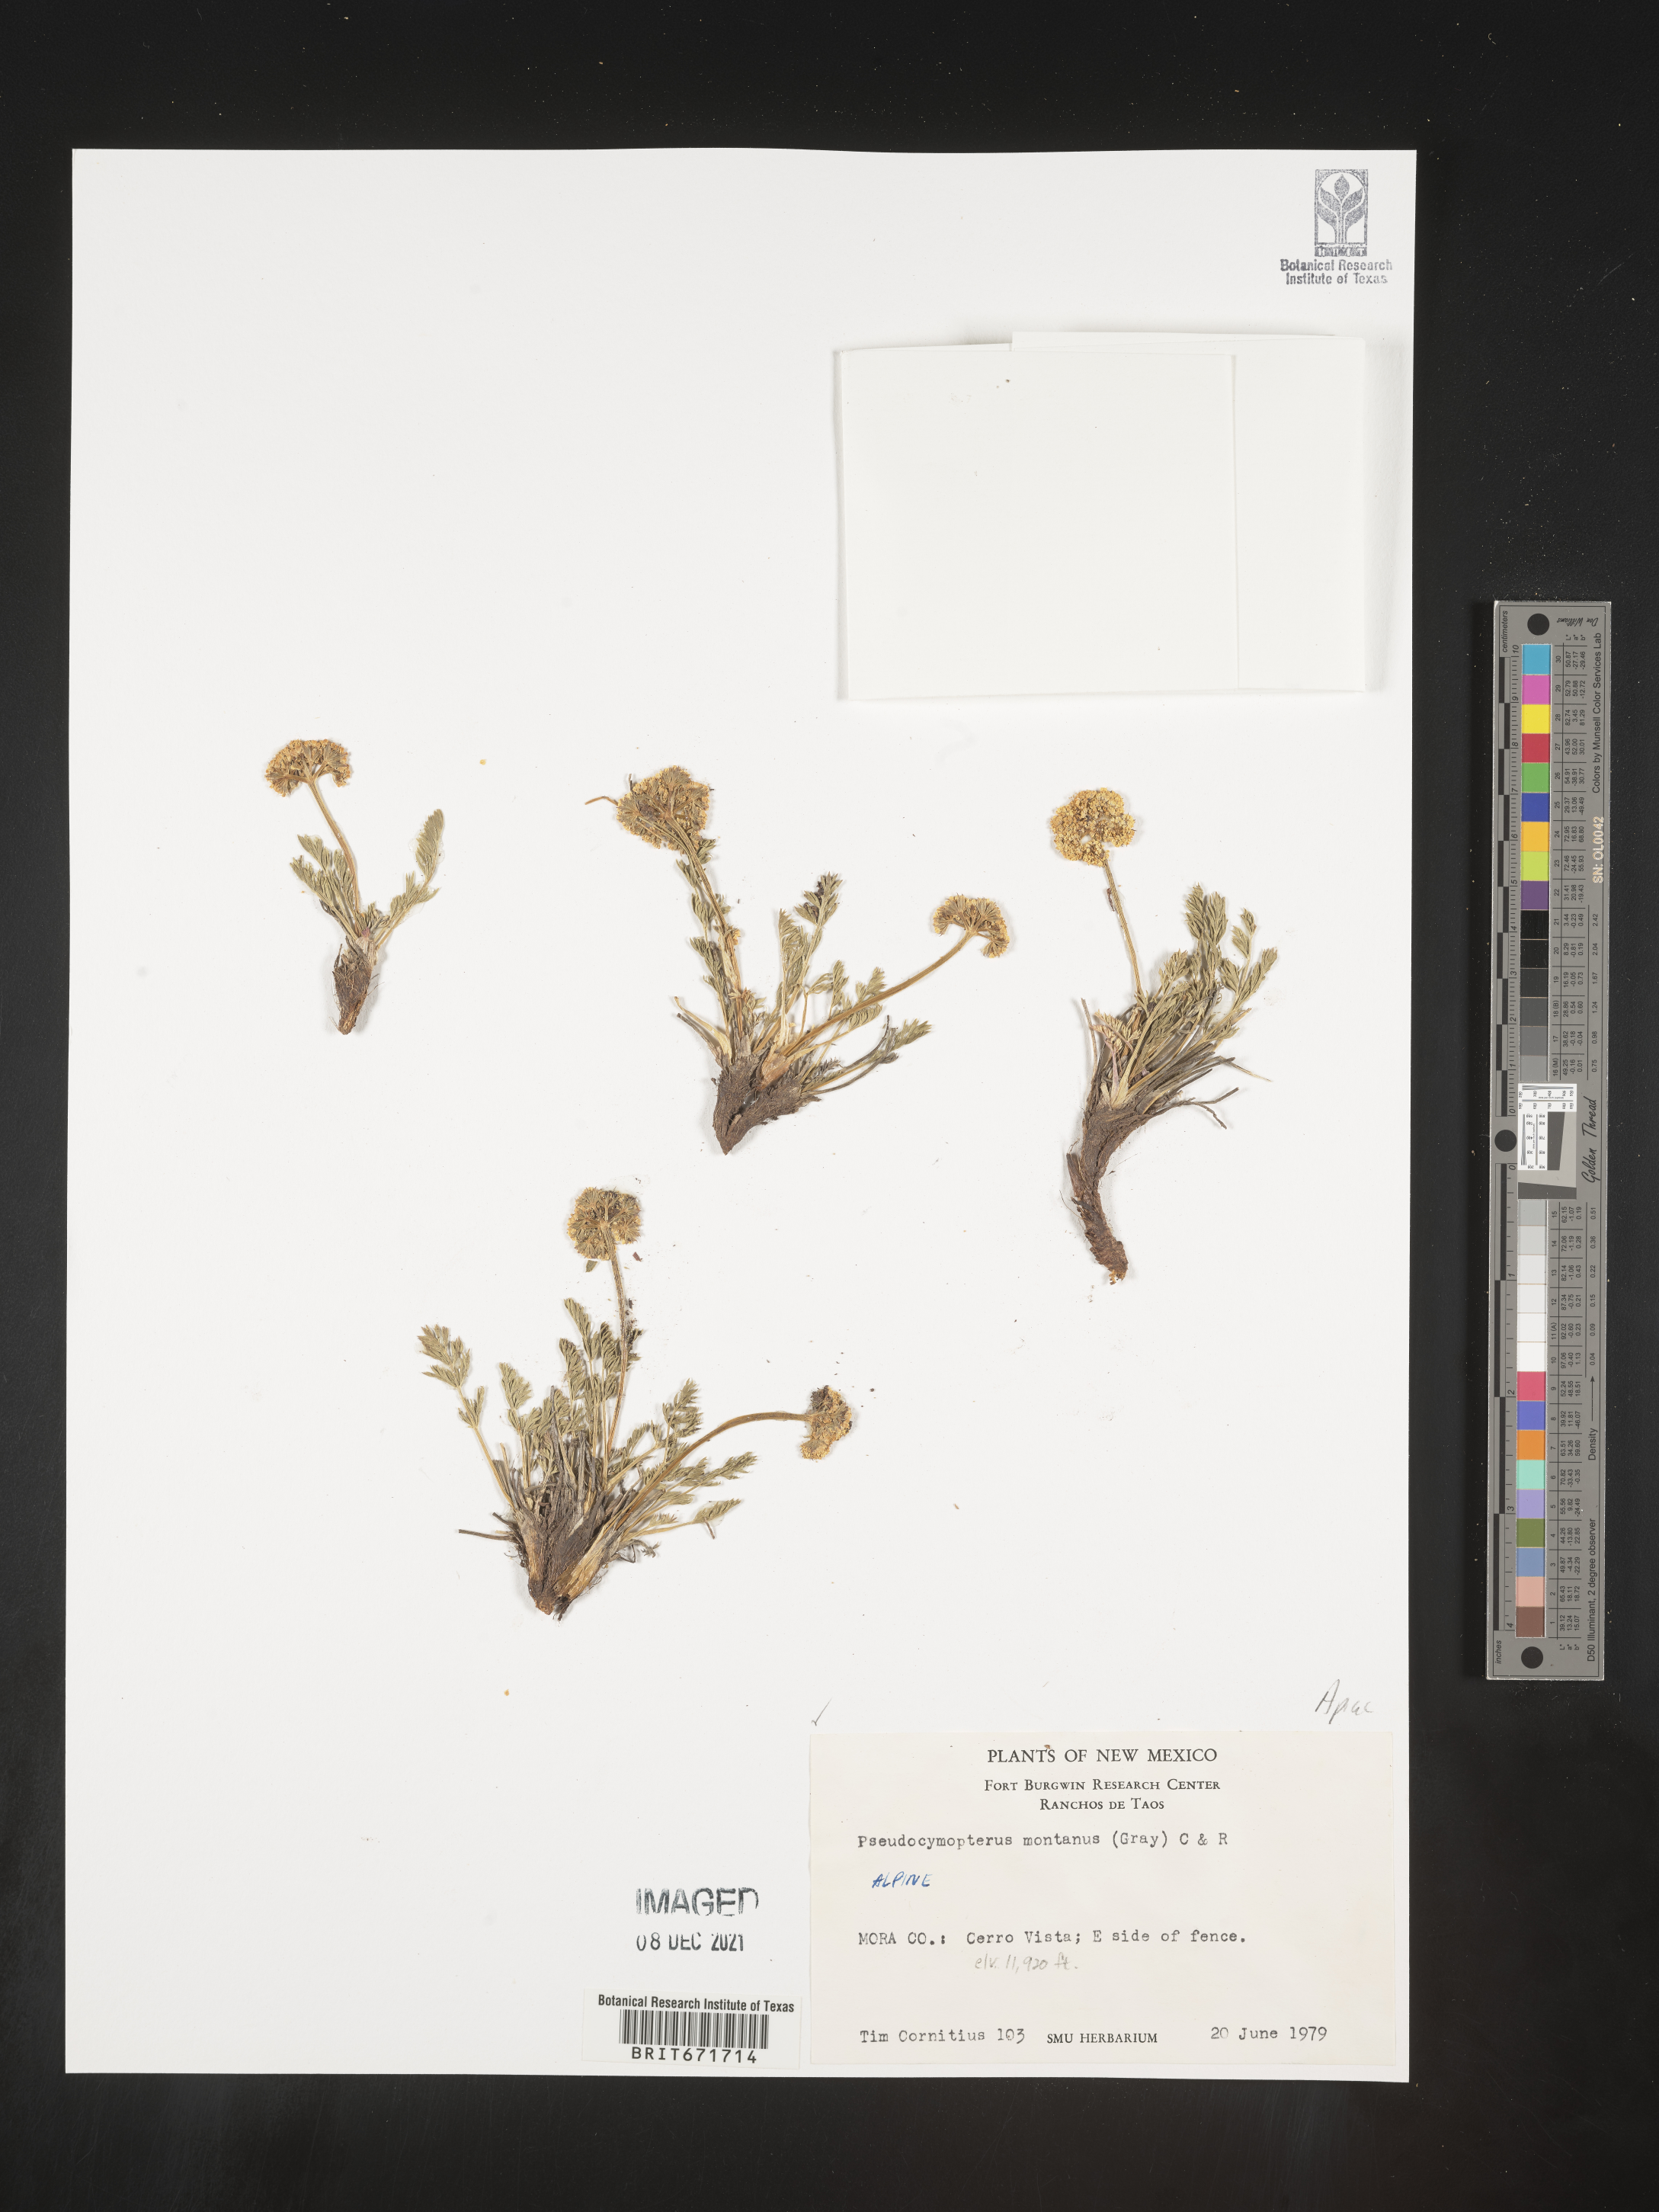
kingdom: Plantae
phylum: Tracheophyta
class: Magnoliopsida
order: Apiales
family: Apiaceae
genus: Cymopterus
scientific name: Cymopterus lemmonii
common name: Lemmon's spring-parsley
